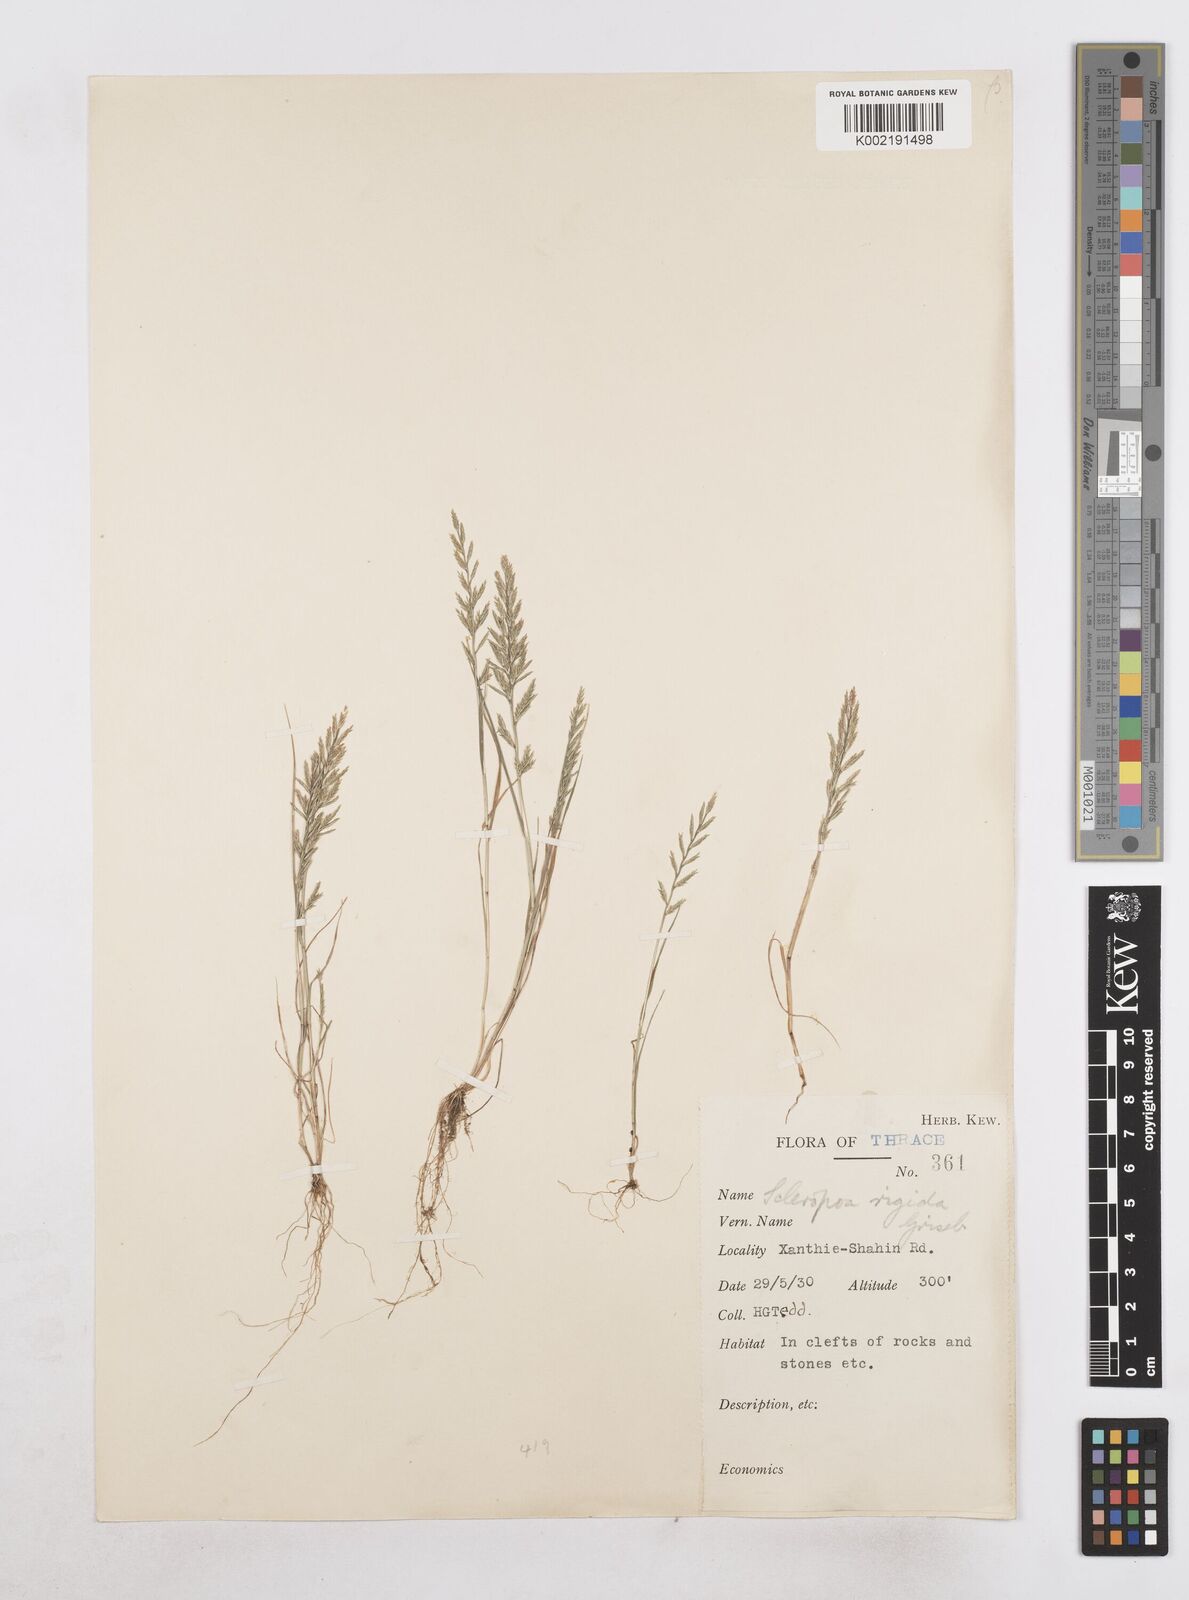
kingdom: Plantae
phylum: Tracheophyta
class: Liliopsida
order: Poales
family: Poaceae
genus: Catapodium
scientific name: Catapodium rigidum
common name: Fern-grass
